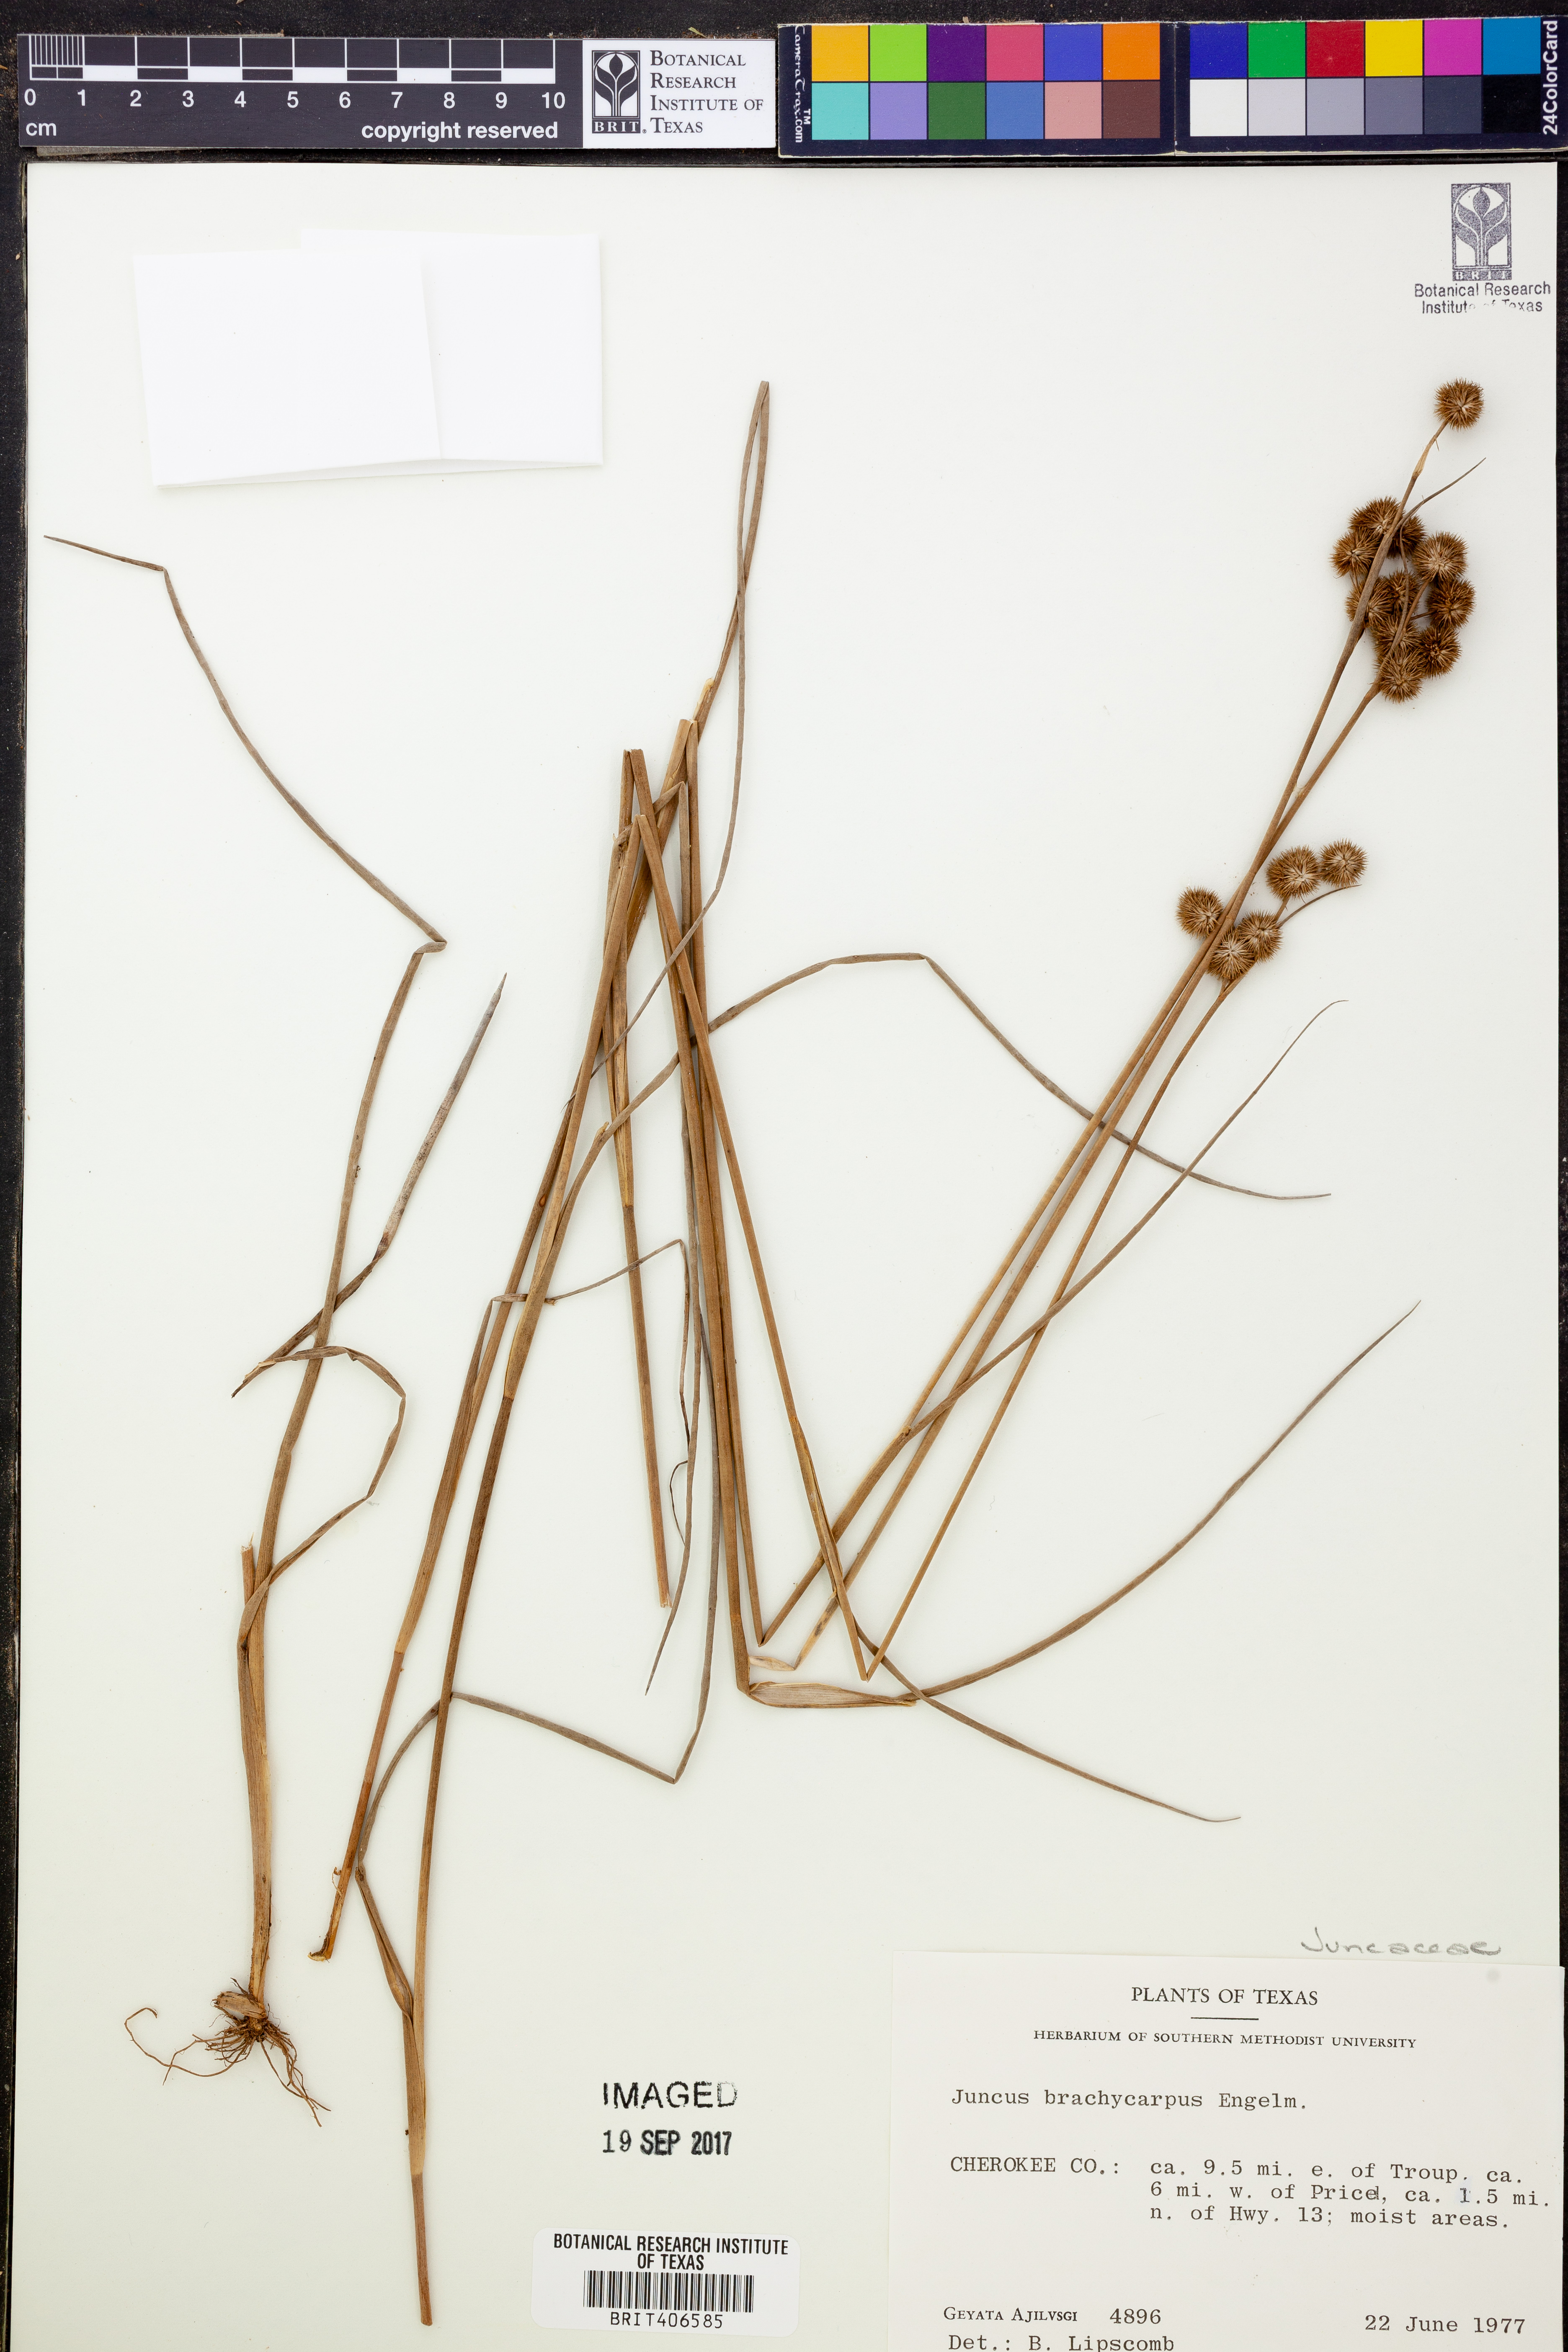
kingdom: Plantae
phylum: Tracheophyta
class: Liliopsida
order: Poales
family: Juncaceae
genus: Juncus
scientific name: Juncus brachycarpus
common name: Shore rush
